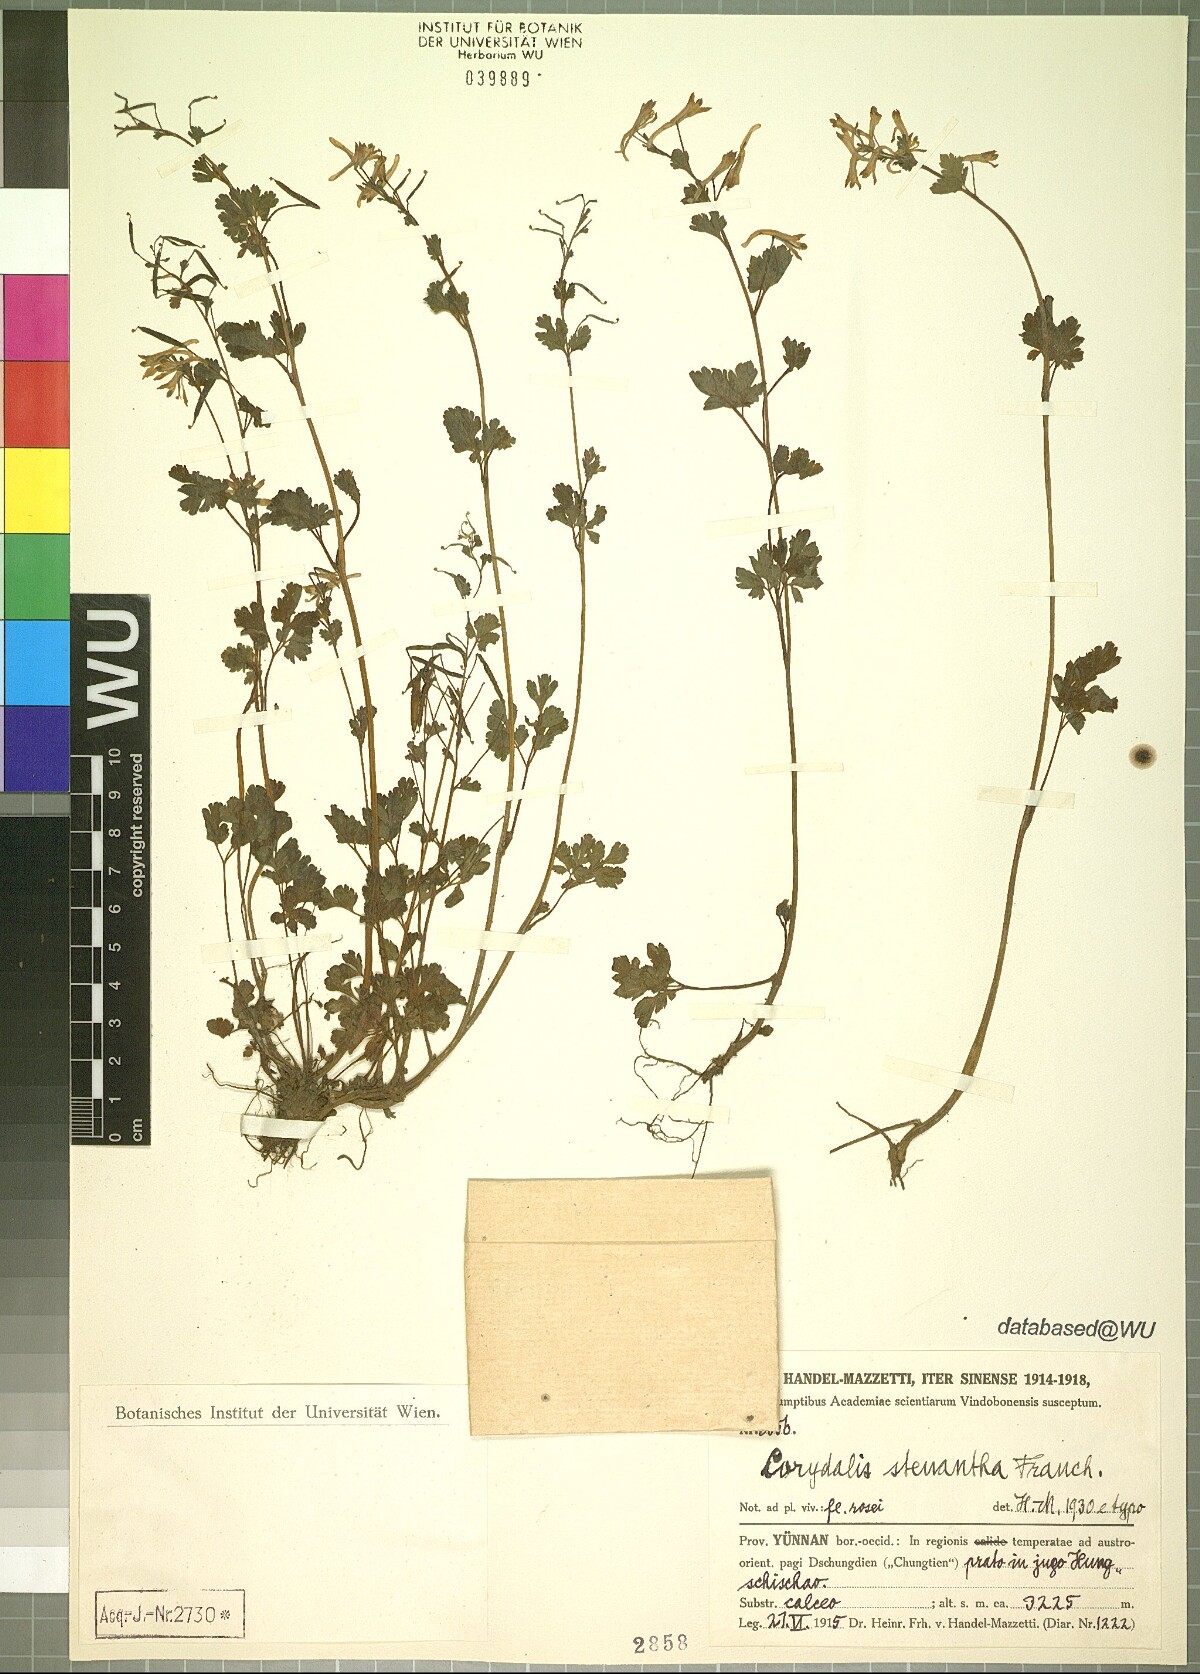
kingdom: Plantae
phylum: Tracheophyta
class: Magnoliopsida
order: Ranunculales
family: Papaveraceae
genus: Corydalis
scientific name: Corydalis stenantha
